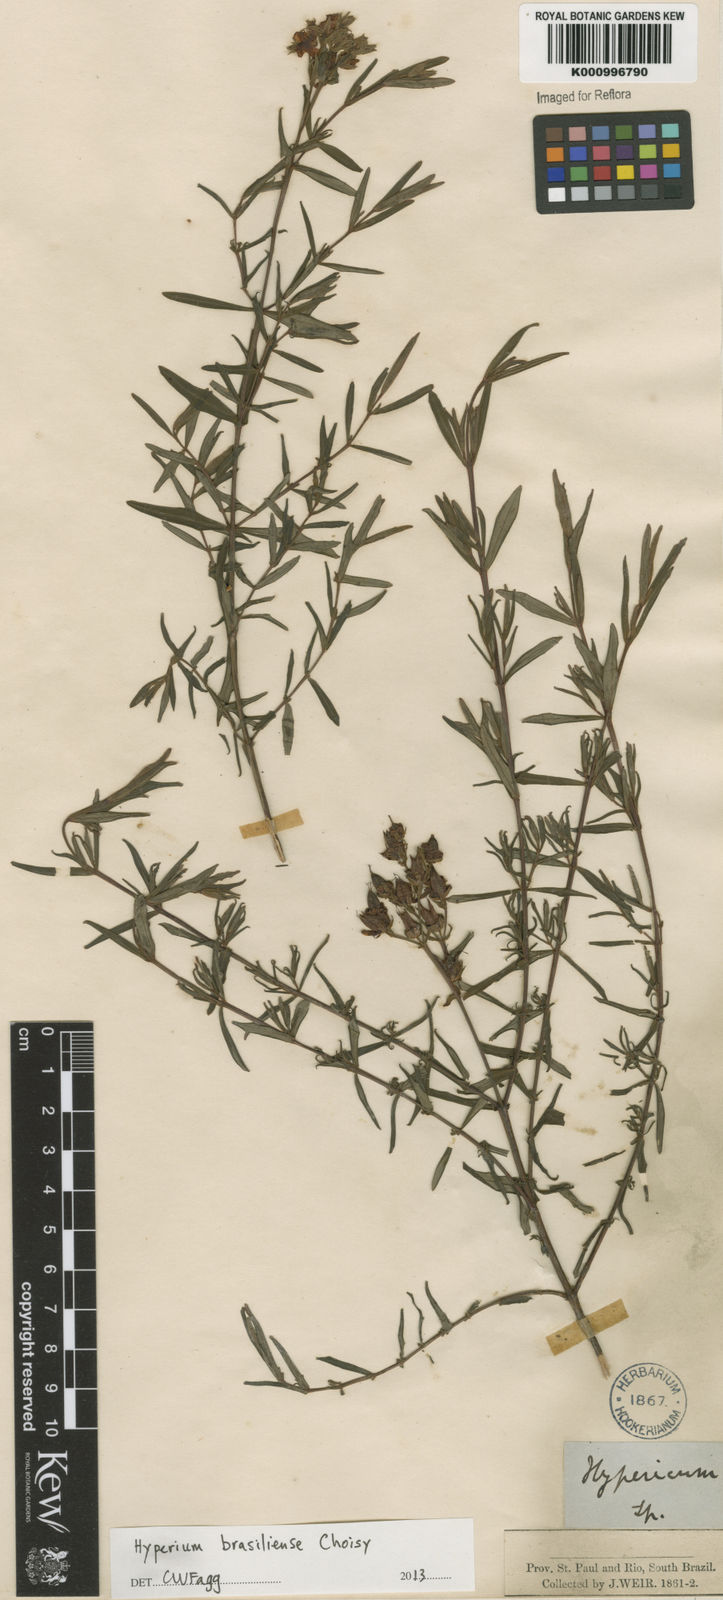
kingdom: Plantae
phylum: Tracheophyta
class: Magnoliopsida
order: Malpighiales
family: Hypericaceae
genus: Hypericum
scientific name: Hypericum brasiliense
